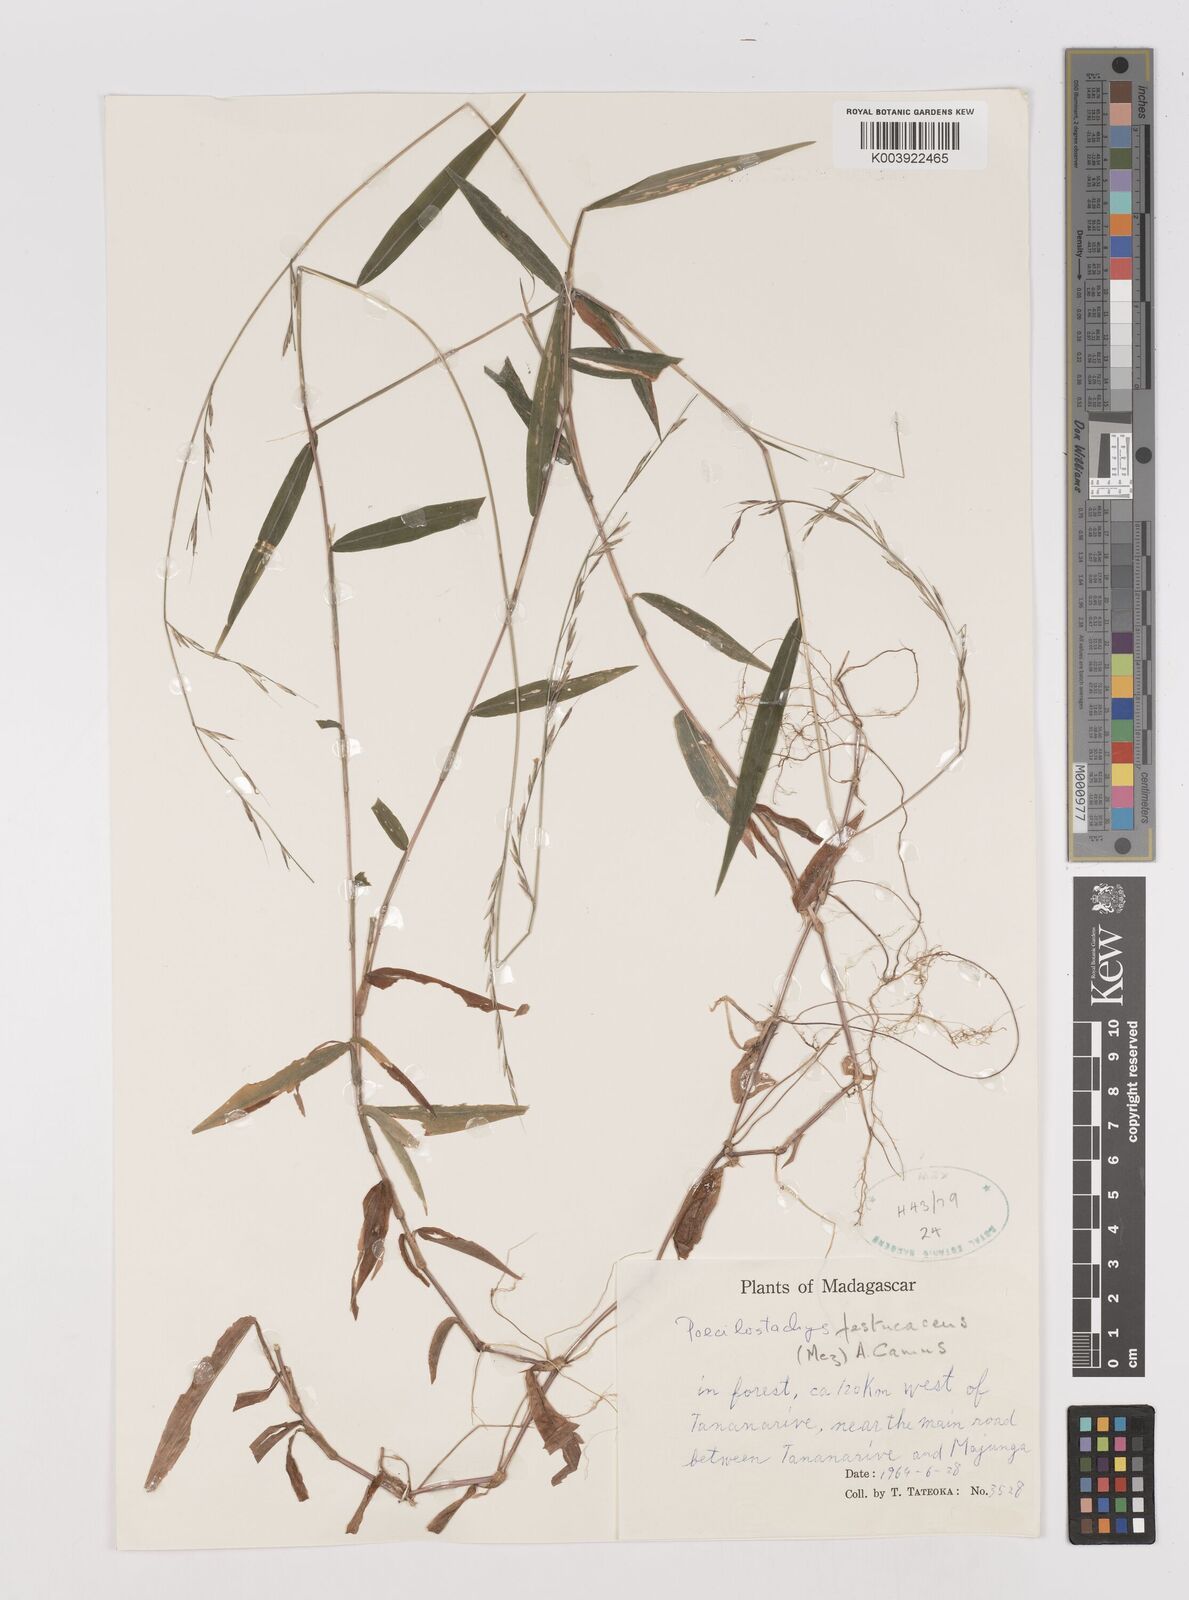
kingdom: Plantae
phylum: Tracheophyta
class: Liliopsida
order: Poales
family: Poaceae
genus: Poecilostachys
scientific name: Poecilostachys baronis
